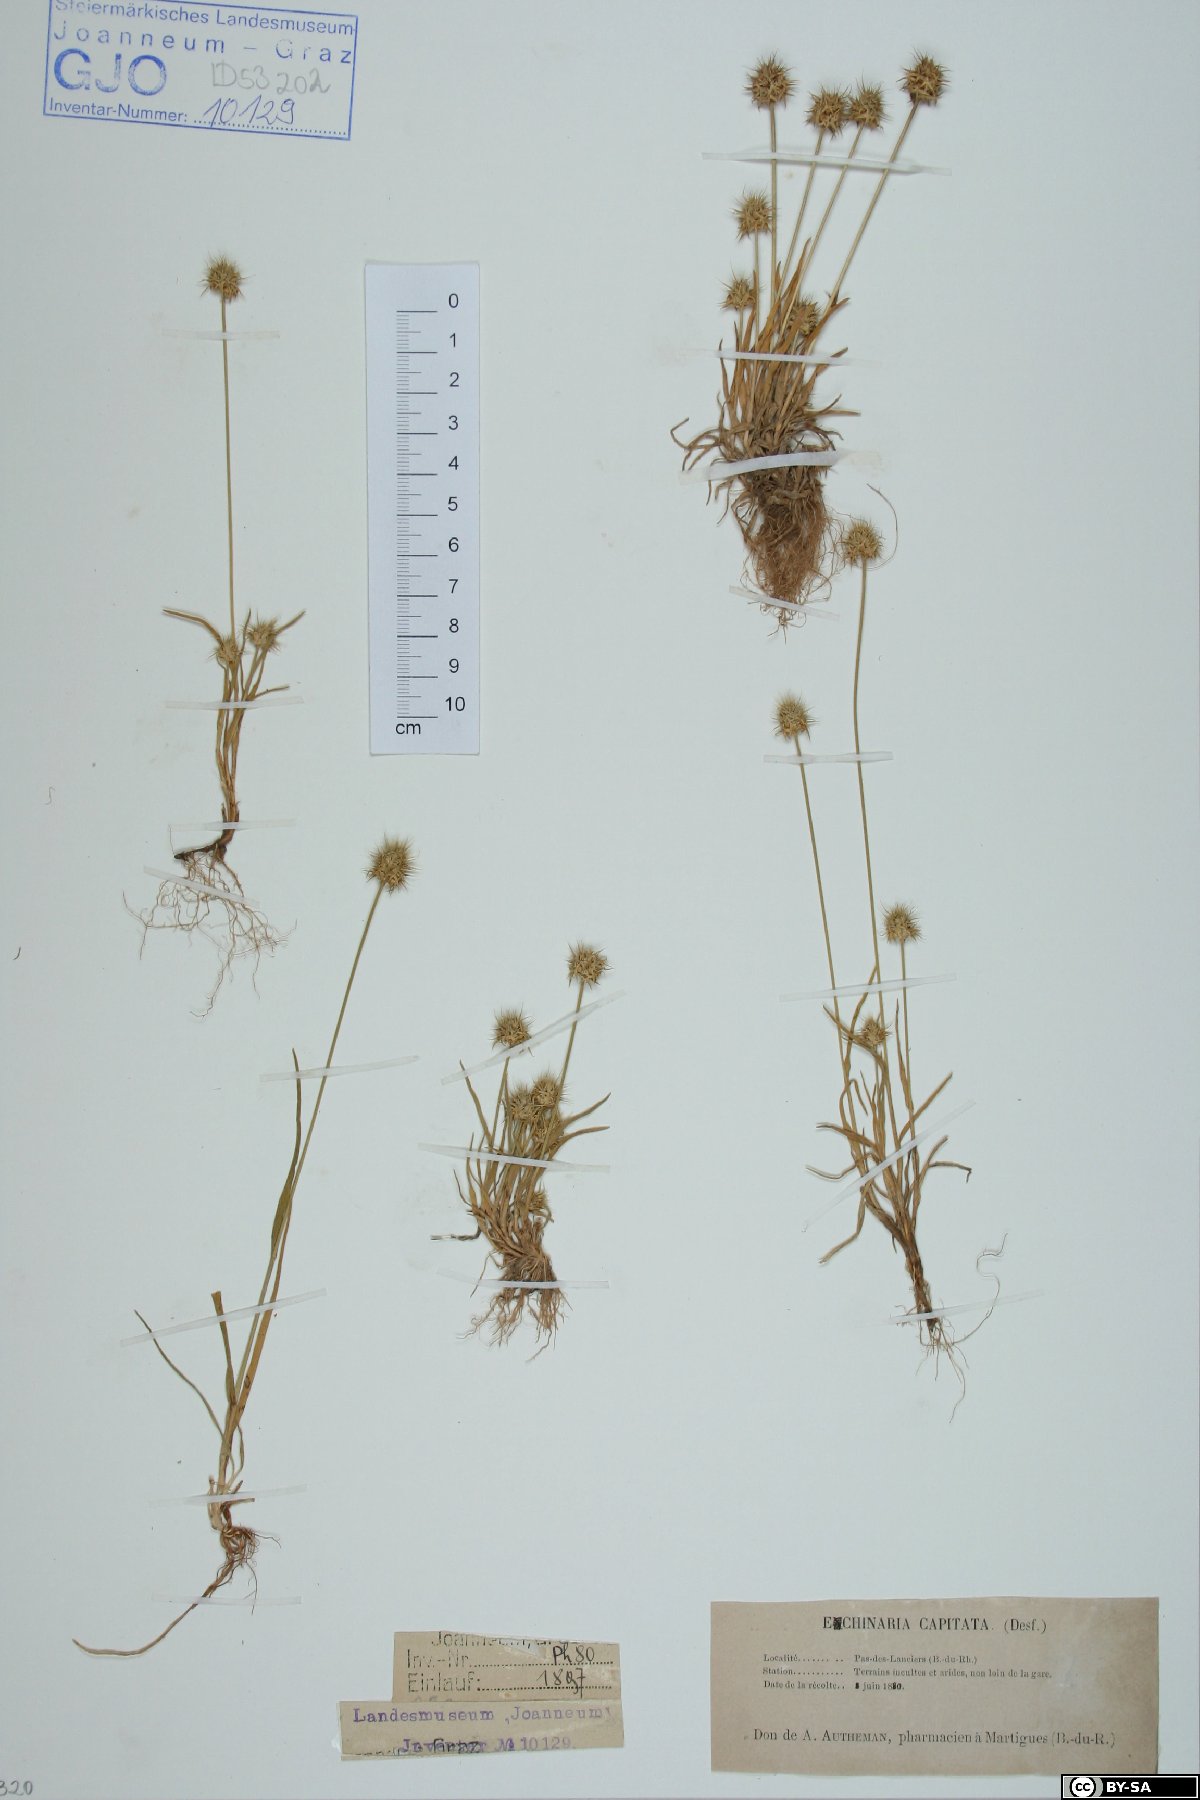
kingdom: Plantae
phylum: Tracheophyta
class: Liliopsida
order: Poales
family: Poaceae
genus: Echinaria
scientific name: Echinaria capitata
